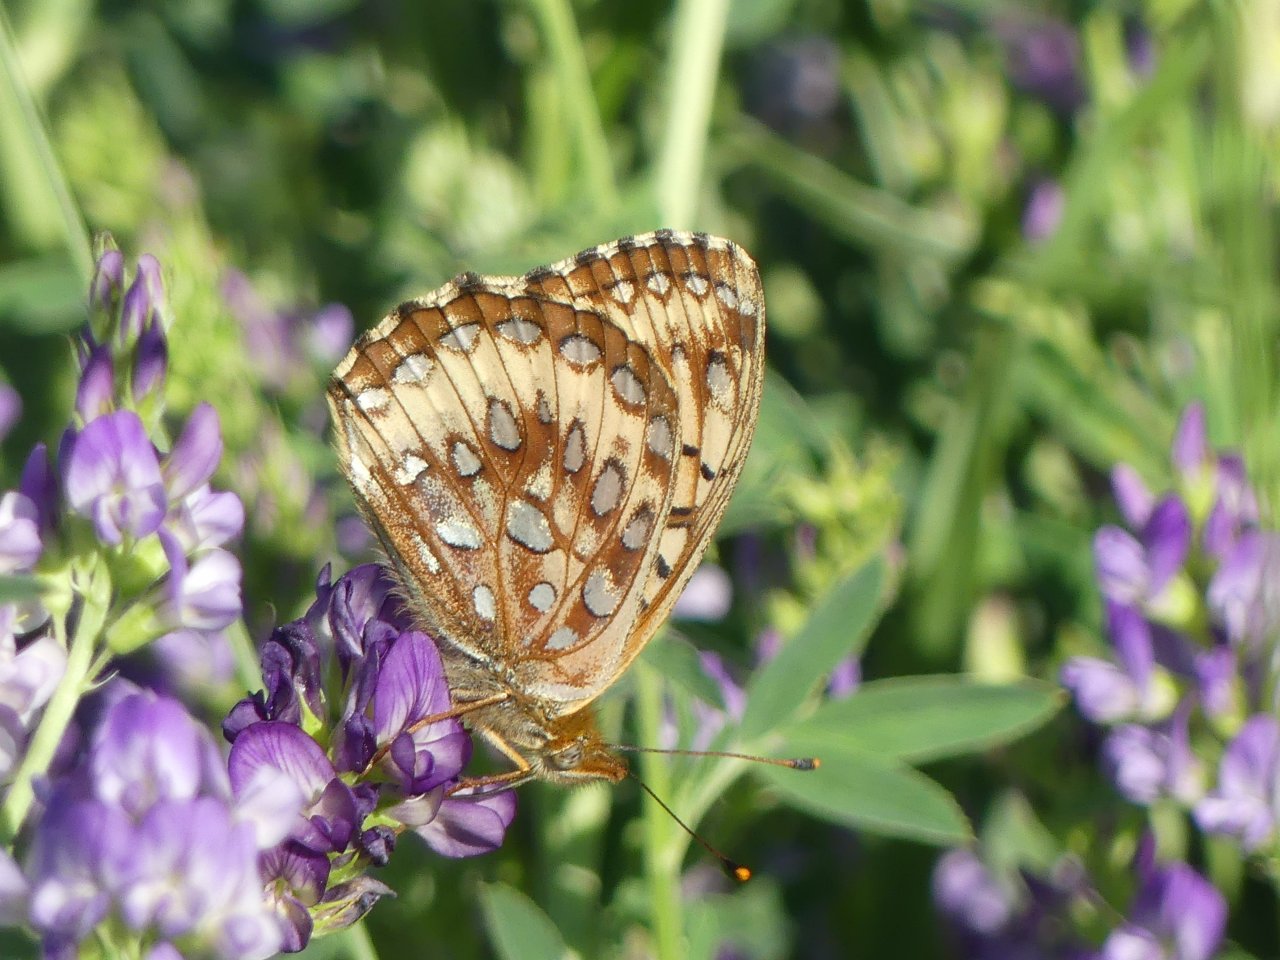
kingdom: Animalia
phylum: Arthropoda
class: Insecta
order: Lepidoptera
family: Nymphalidae
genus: Speyeria
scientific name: Speyeria atlantis
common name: Northwestern Fritillary
